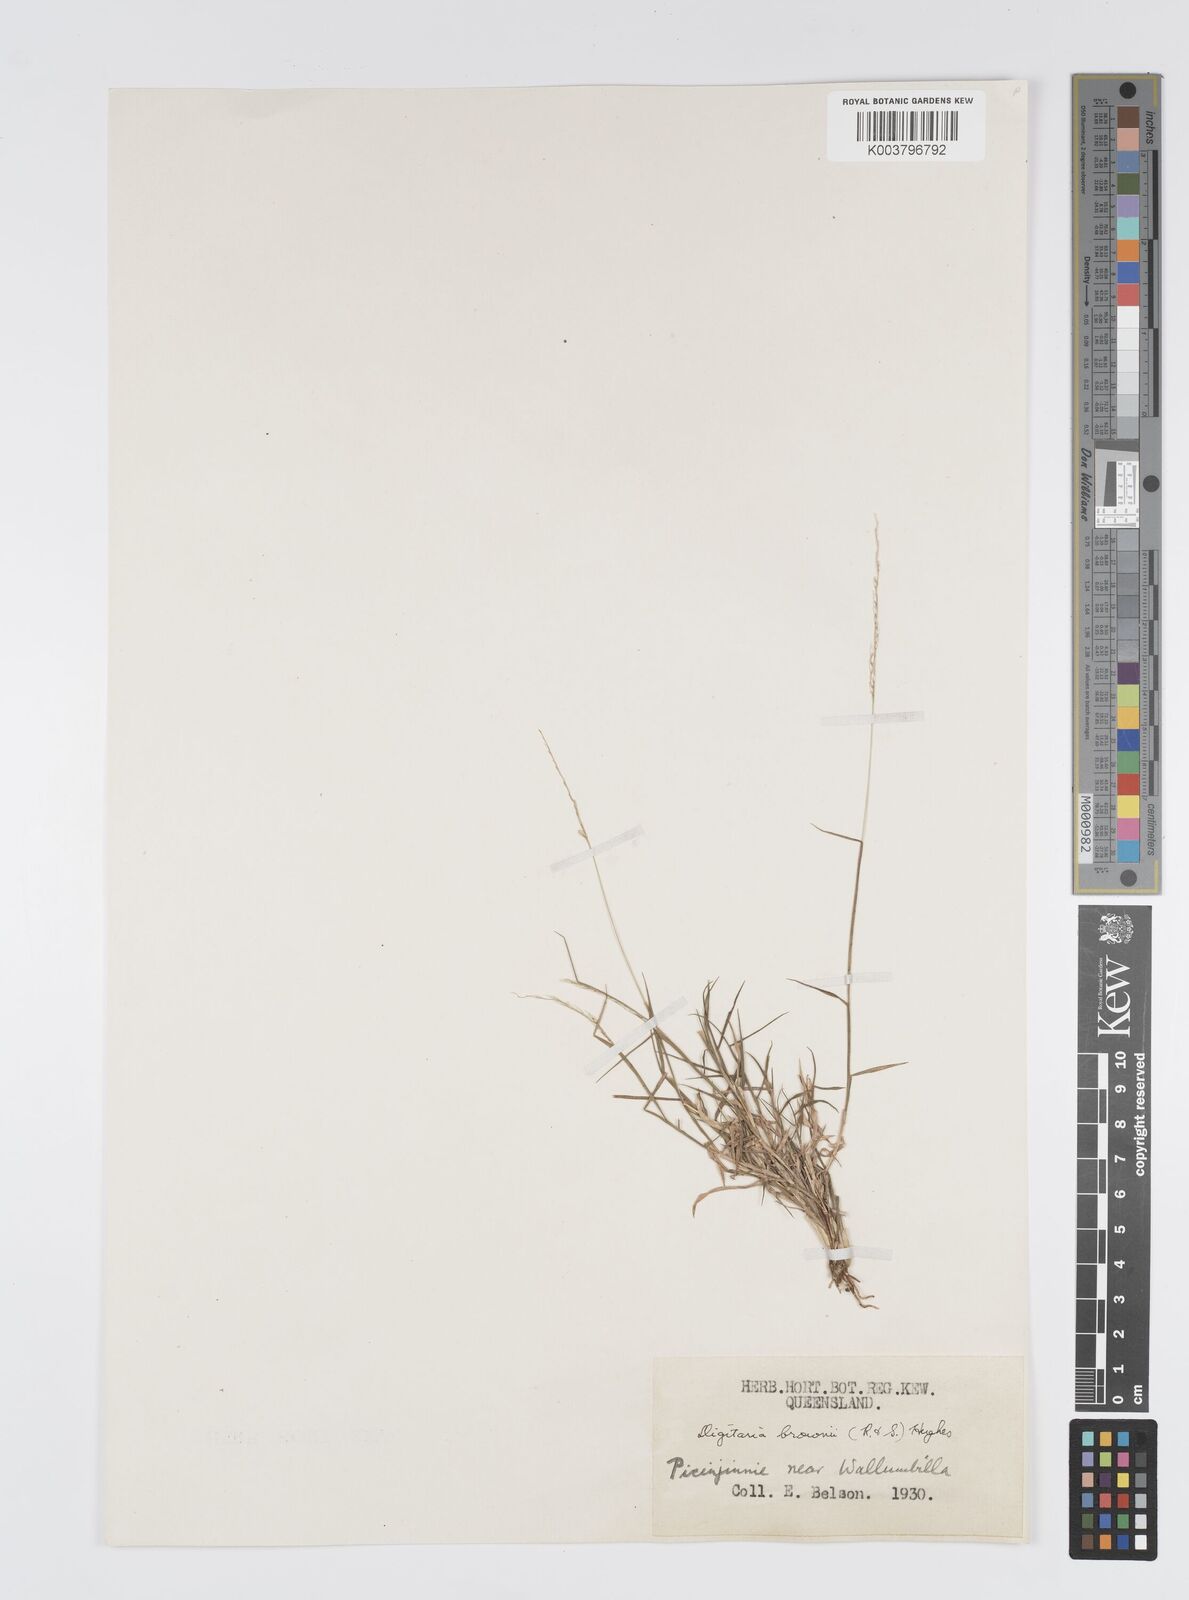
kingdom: Plantae
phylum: Tracheophyta
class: Liliopsida
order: Poales
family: Poaceae
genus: Digitaria
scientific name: Digitaria brownii
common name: Cotton grass
